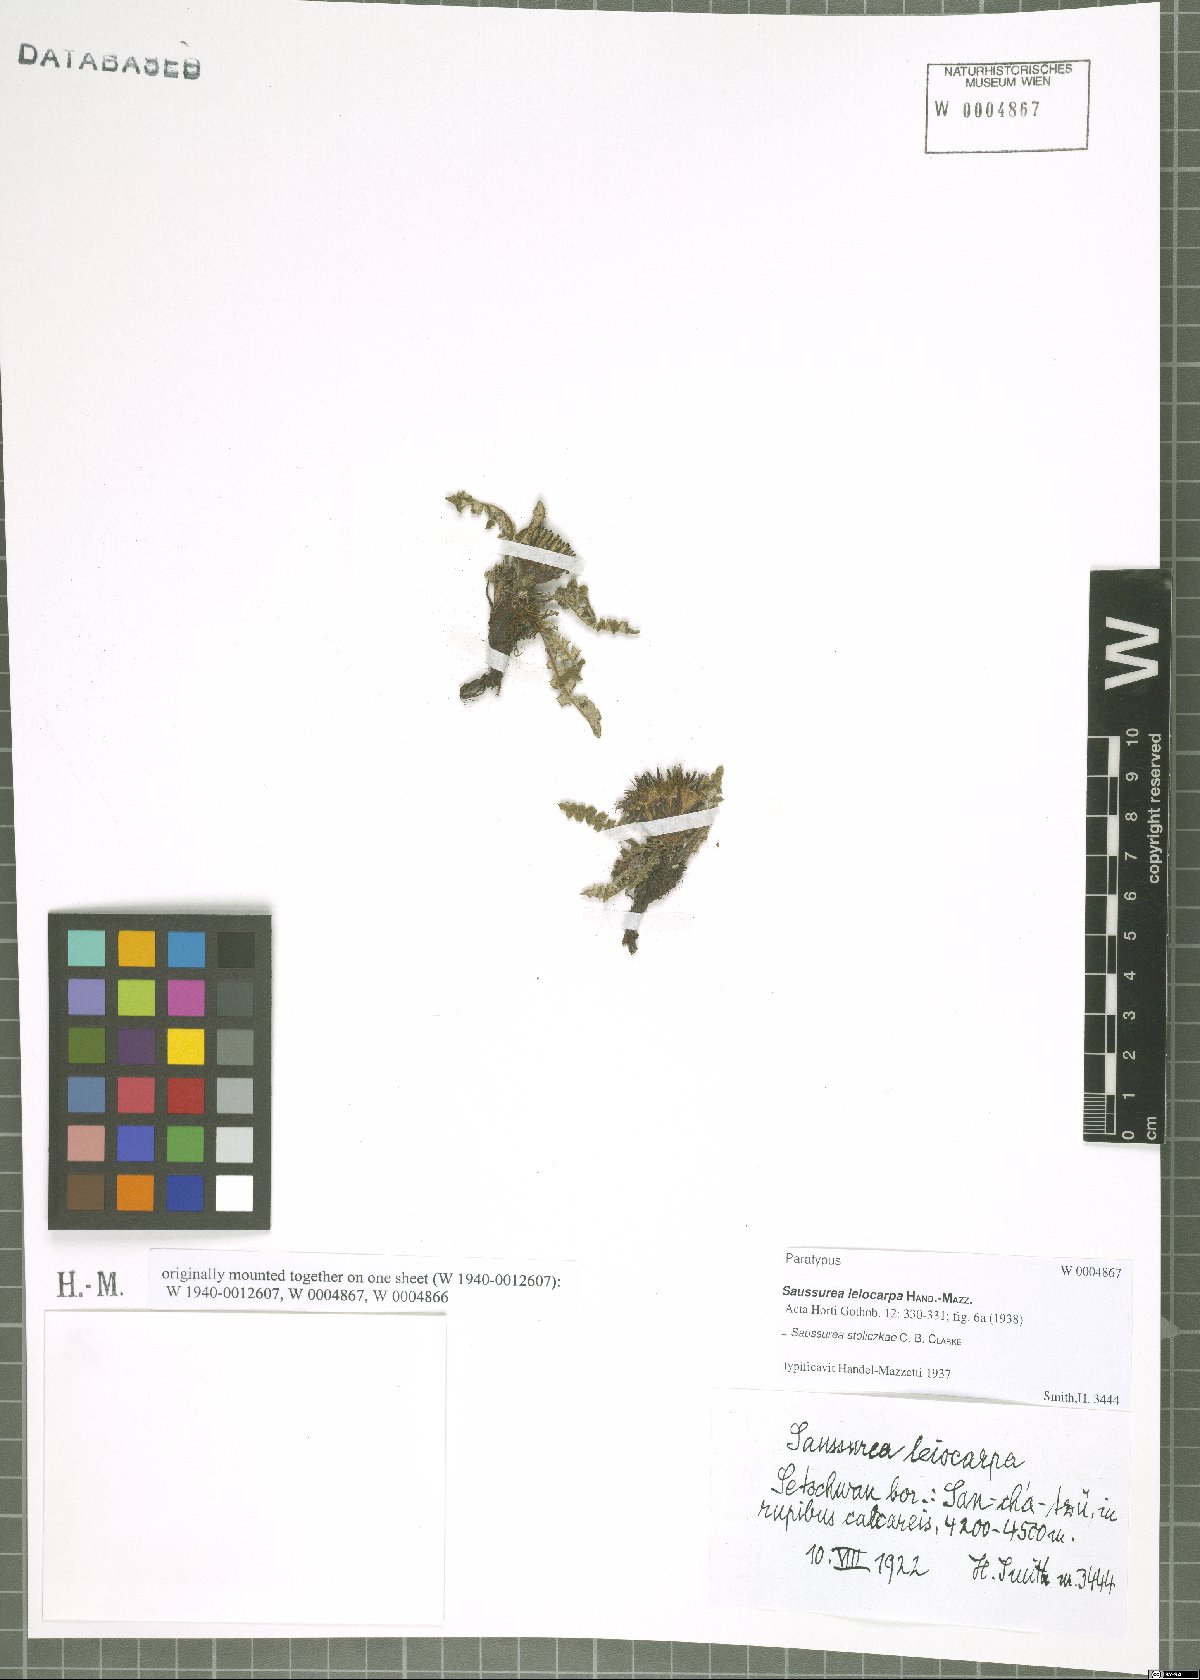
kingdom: Plantae
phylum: Tracheophyta
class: Magnoliopsida
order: Asterales
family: Asteraceae
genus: Saussurea
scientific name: Saussurea stoliczkae
